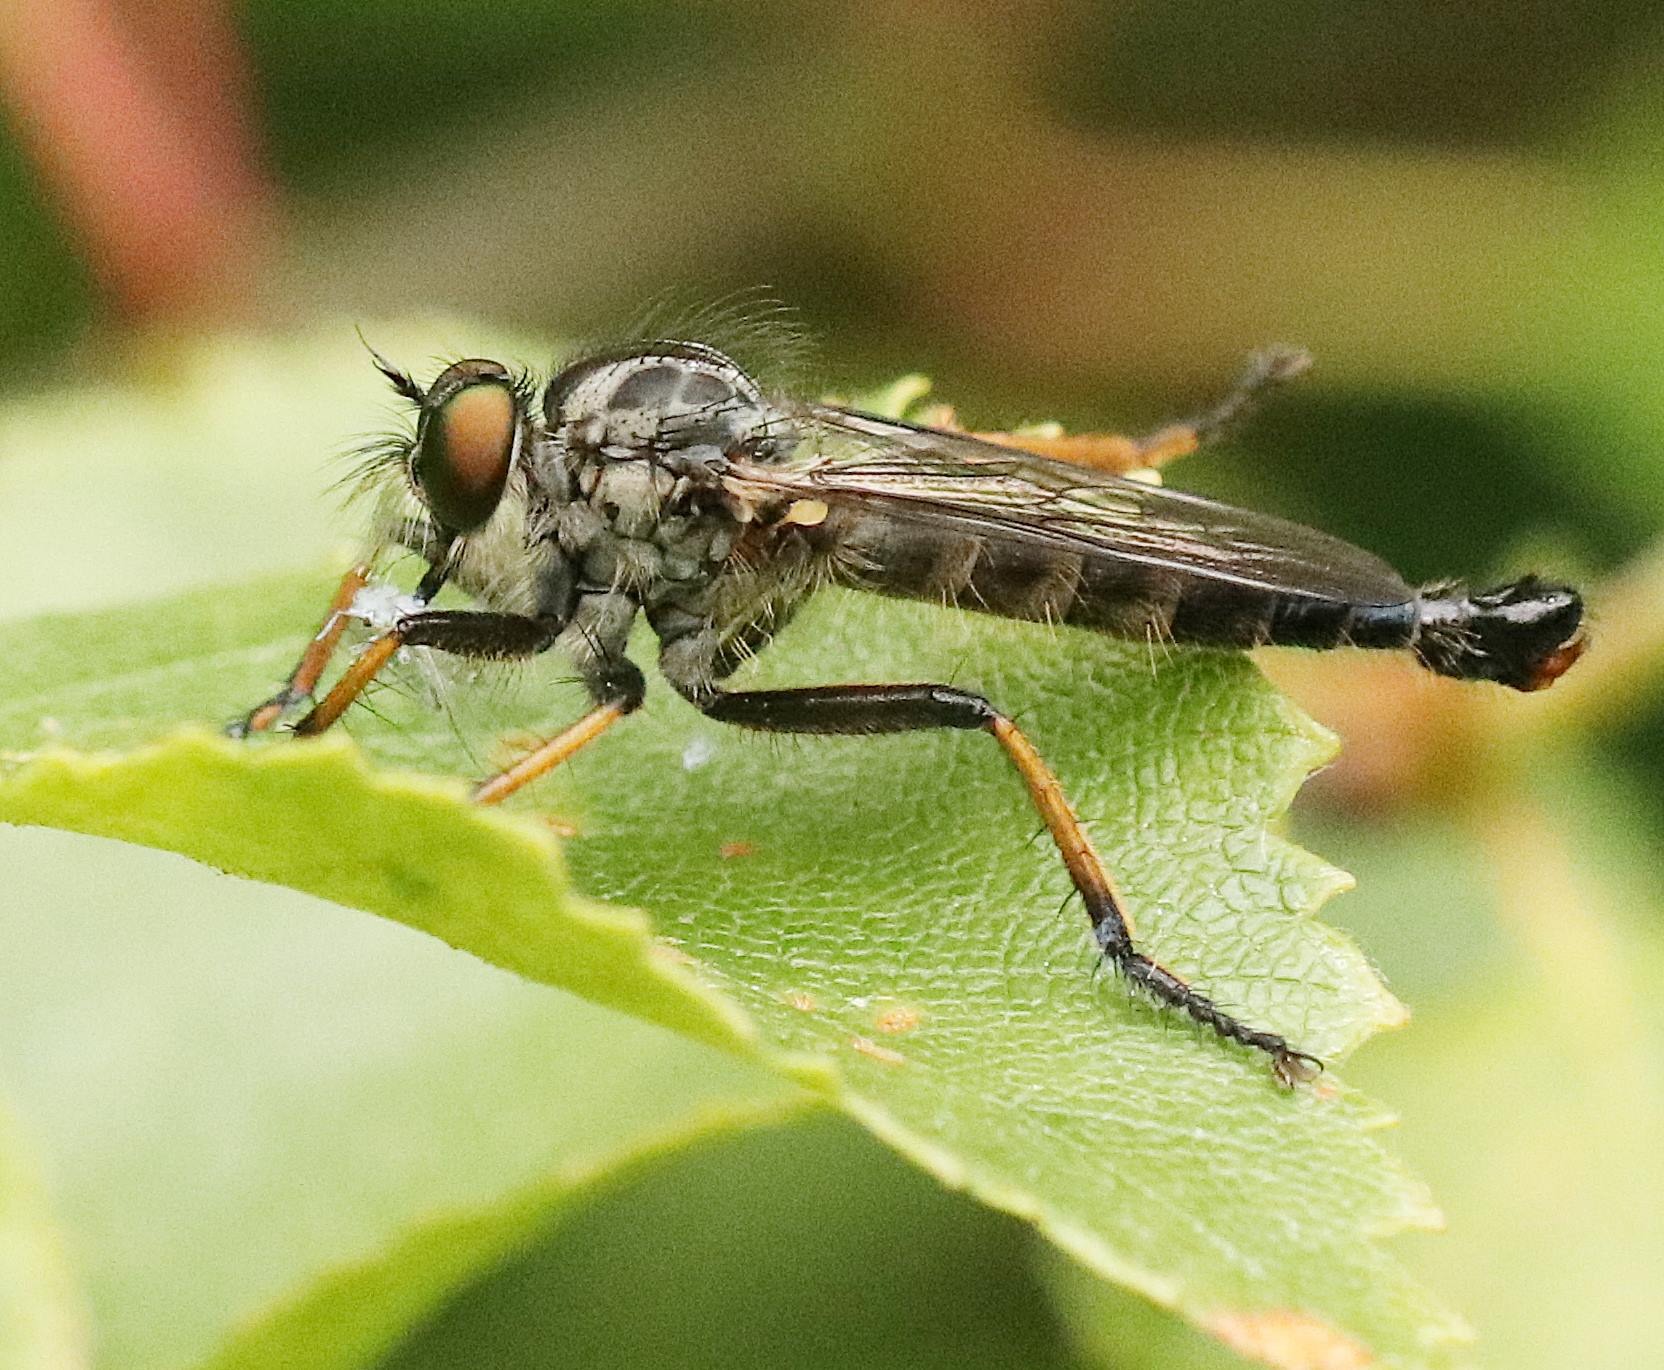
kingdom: Animalia
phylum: Arthropoda
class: Insecta
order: Diptera
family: Asilidae
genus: Neoitamus
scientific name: Neoitamus cyanurus
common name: Sortfodet skovrovflue
